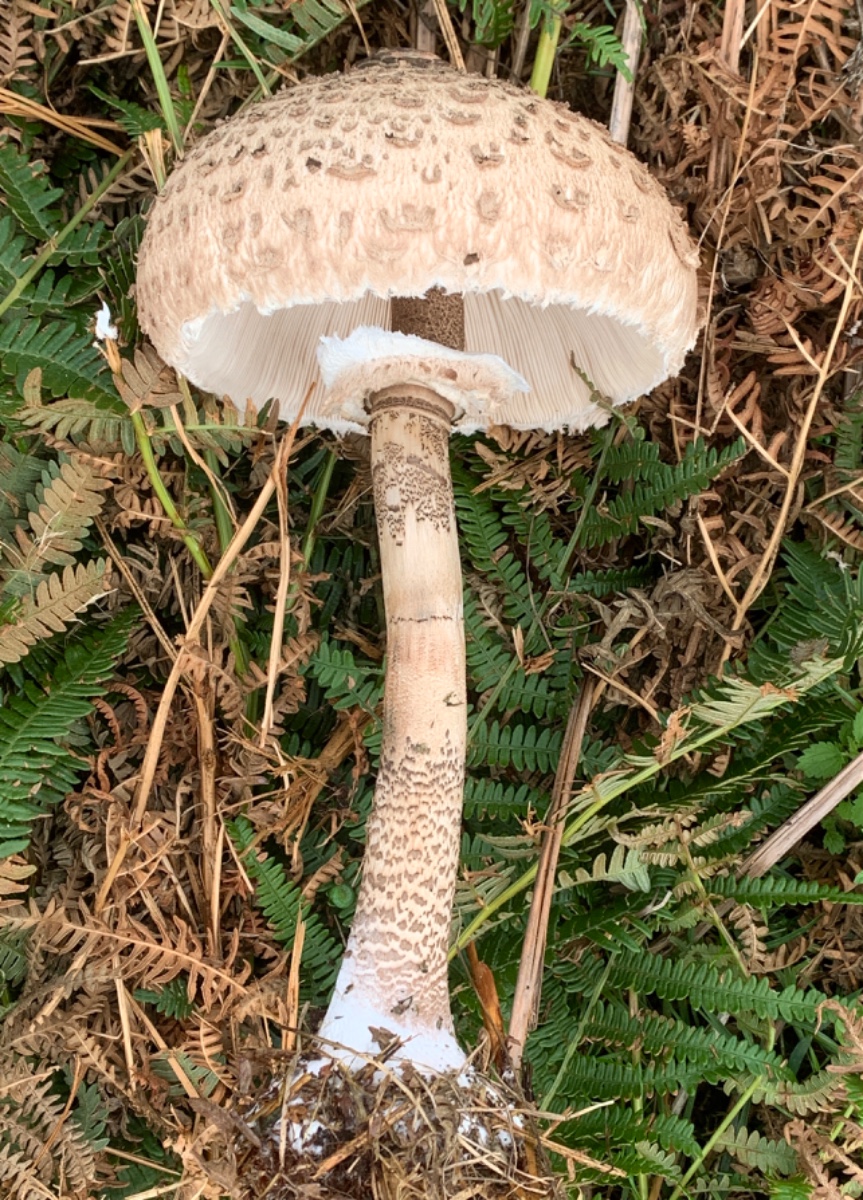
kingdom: Fungi
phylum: Basidiomycota
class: Agaricomycetes
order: Agaricales
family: Agaricaceae
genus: Macrolepiota
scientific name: Macrolepiota procera
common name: stor kæmpeparasolhat
